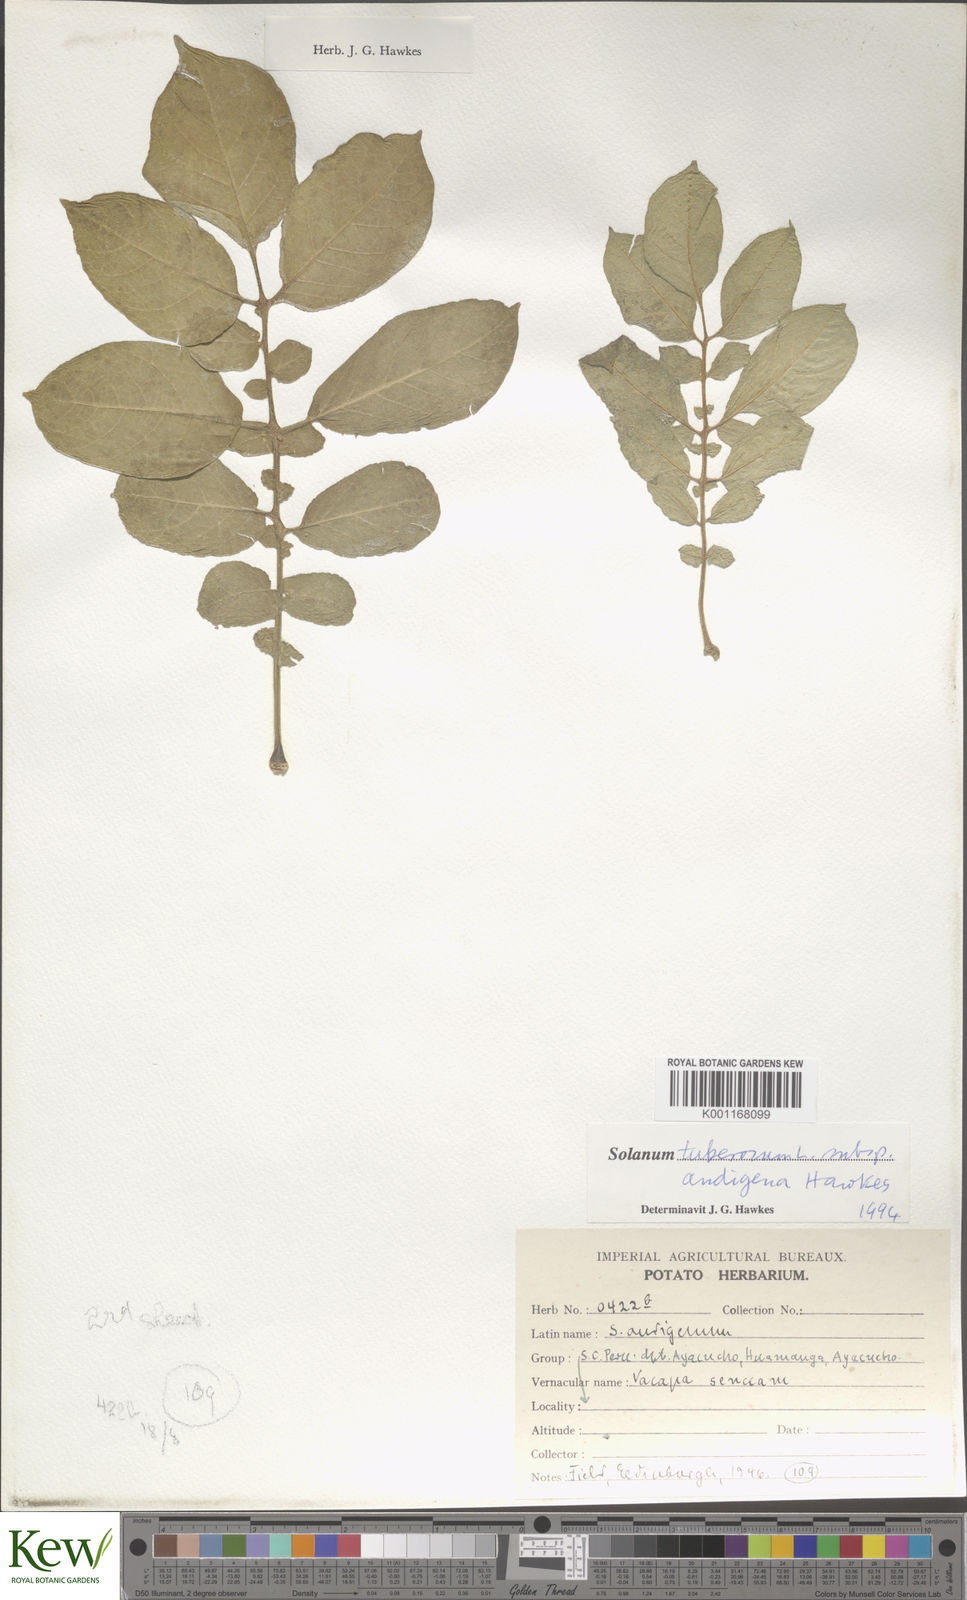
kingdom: Plantae
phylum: Tracheophyta
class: Magnoliopsida
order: Solanales
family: Solanaceae
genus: Solanum
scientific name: Solanum tuberosum
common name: Potato
